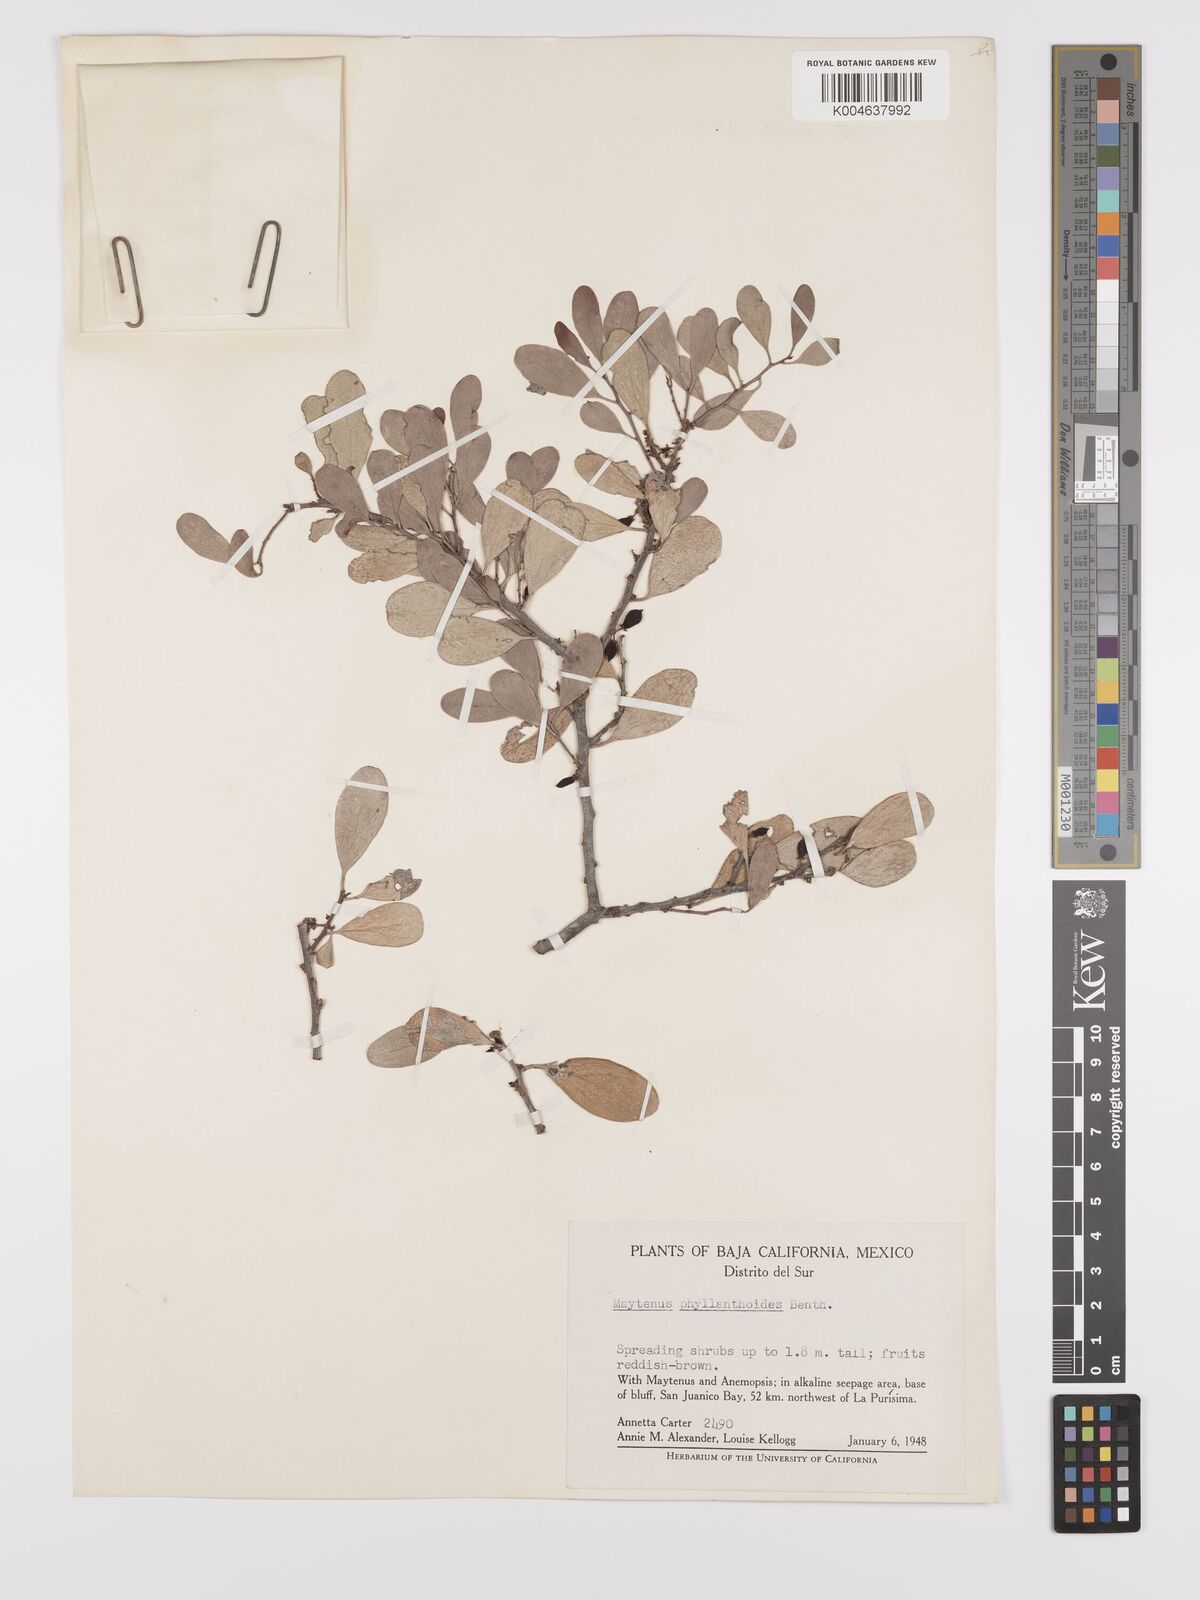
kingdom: Plantae
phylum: Tracheophyta
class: Magnoliopsida
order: Celastrales
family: Celastraceae
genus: Tricerma
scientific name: Tricerma phyllanthoides
